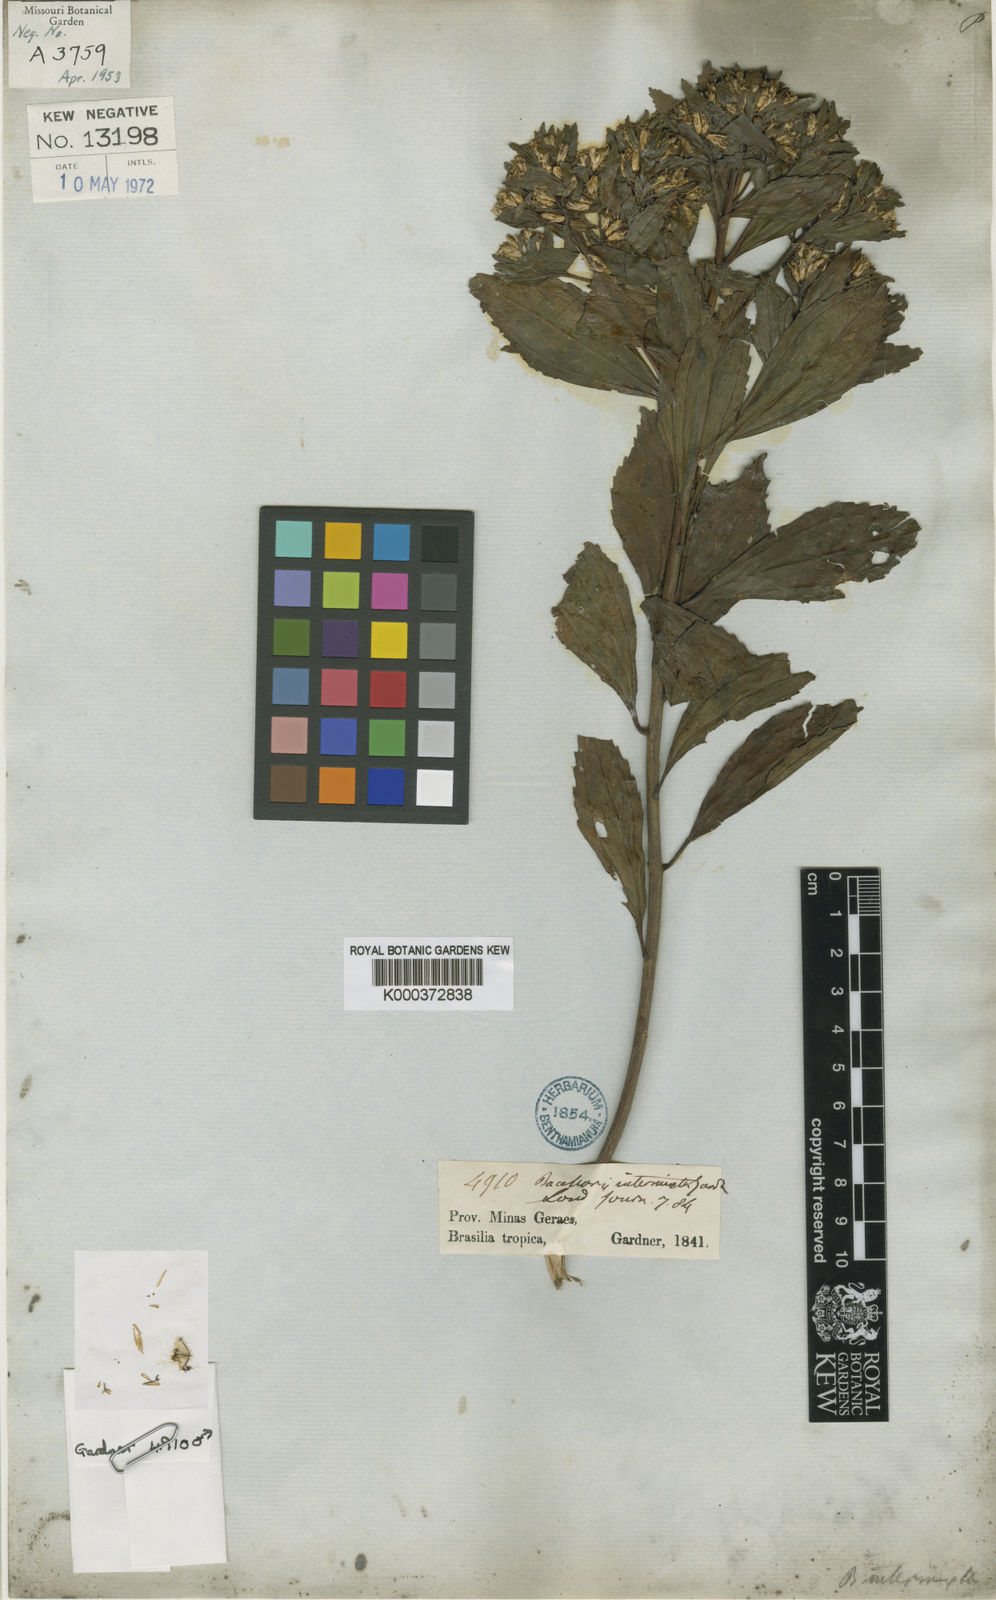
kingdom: Plantae
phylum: Tracheophyta
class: Magnoliopsida
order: Asterales
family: Asteraceae
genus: Baccharis
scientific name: Baccharis intermixta
